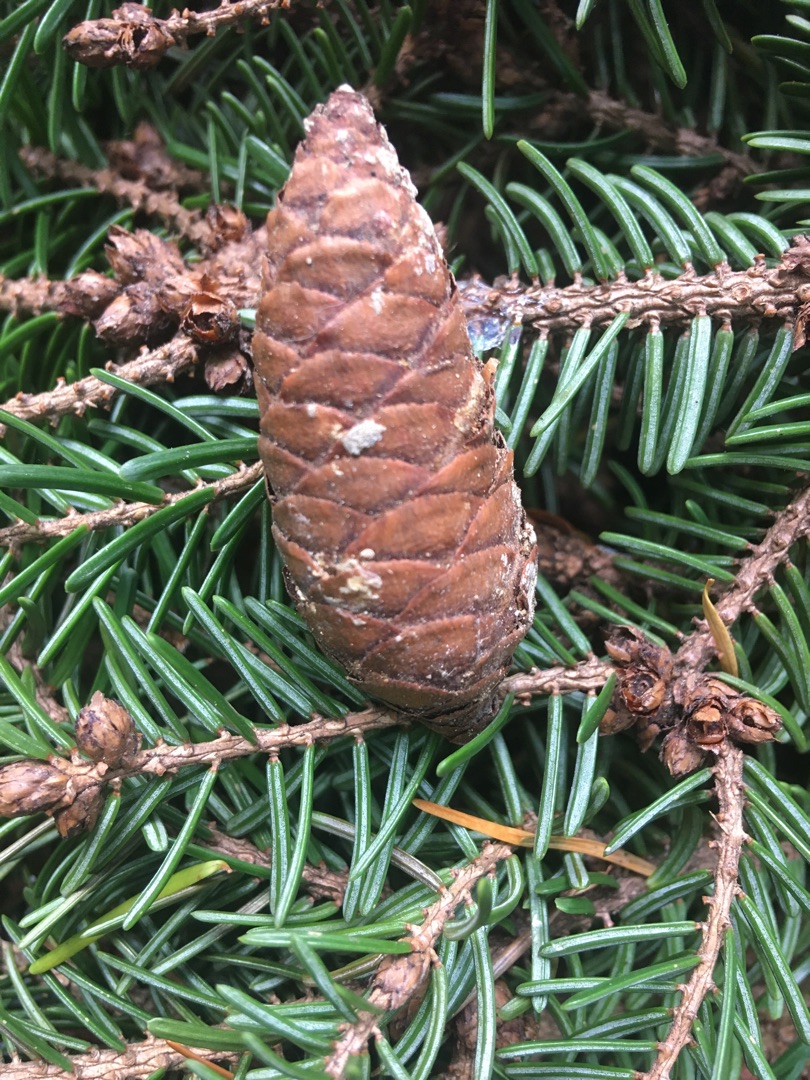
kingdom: Plantae
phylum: Tracheophyta
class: Pinopsida
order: Pinales
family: Pinaceae
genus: Picea
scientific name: Picea glauca
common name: Hvid-gran
